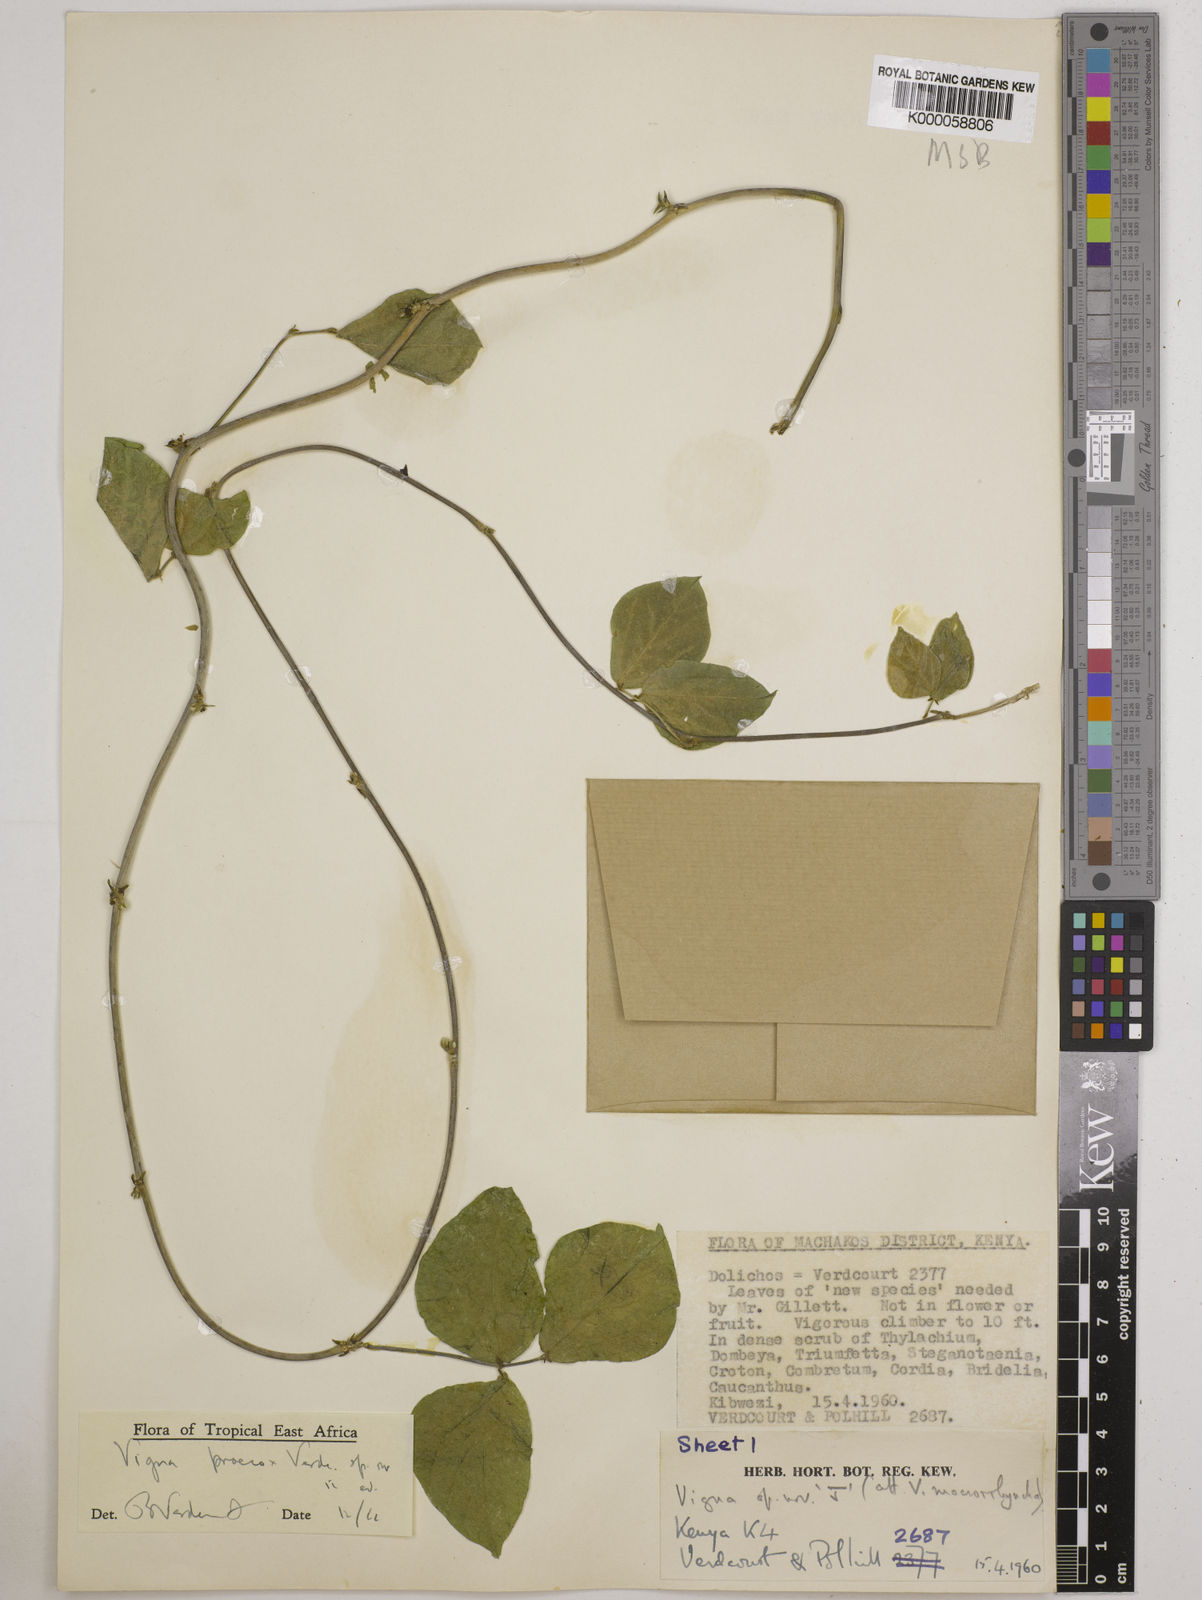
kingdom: Plantae
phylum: Tracheophyta
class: Magnoliopsida
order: Fabales
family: Fabaceae
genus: Wajira
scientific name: Wajira praecox
